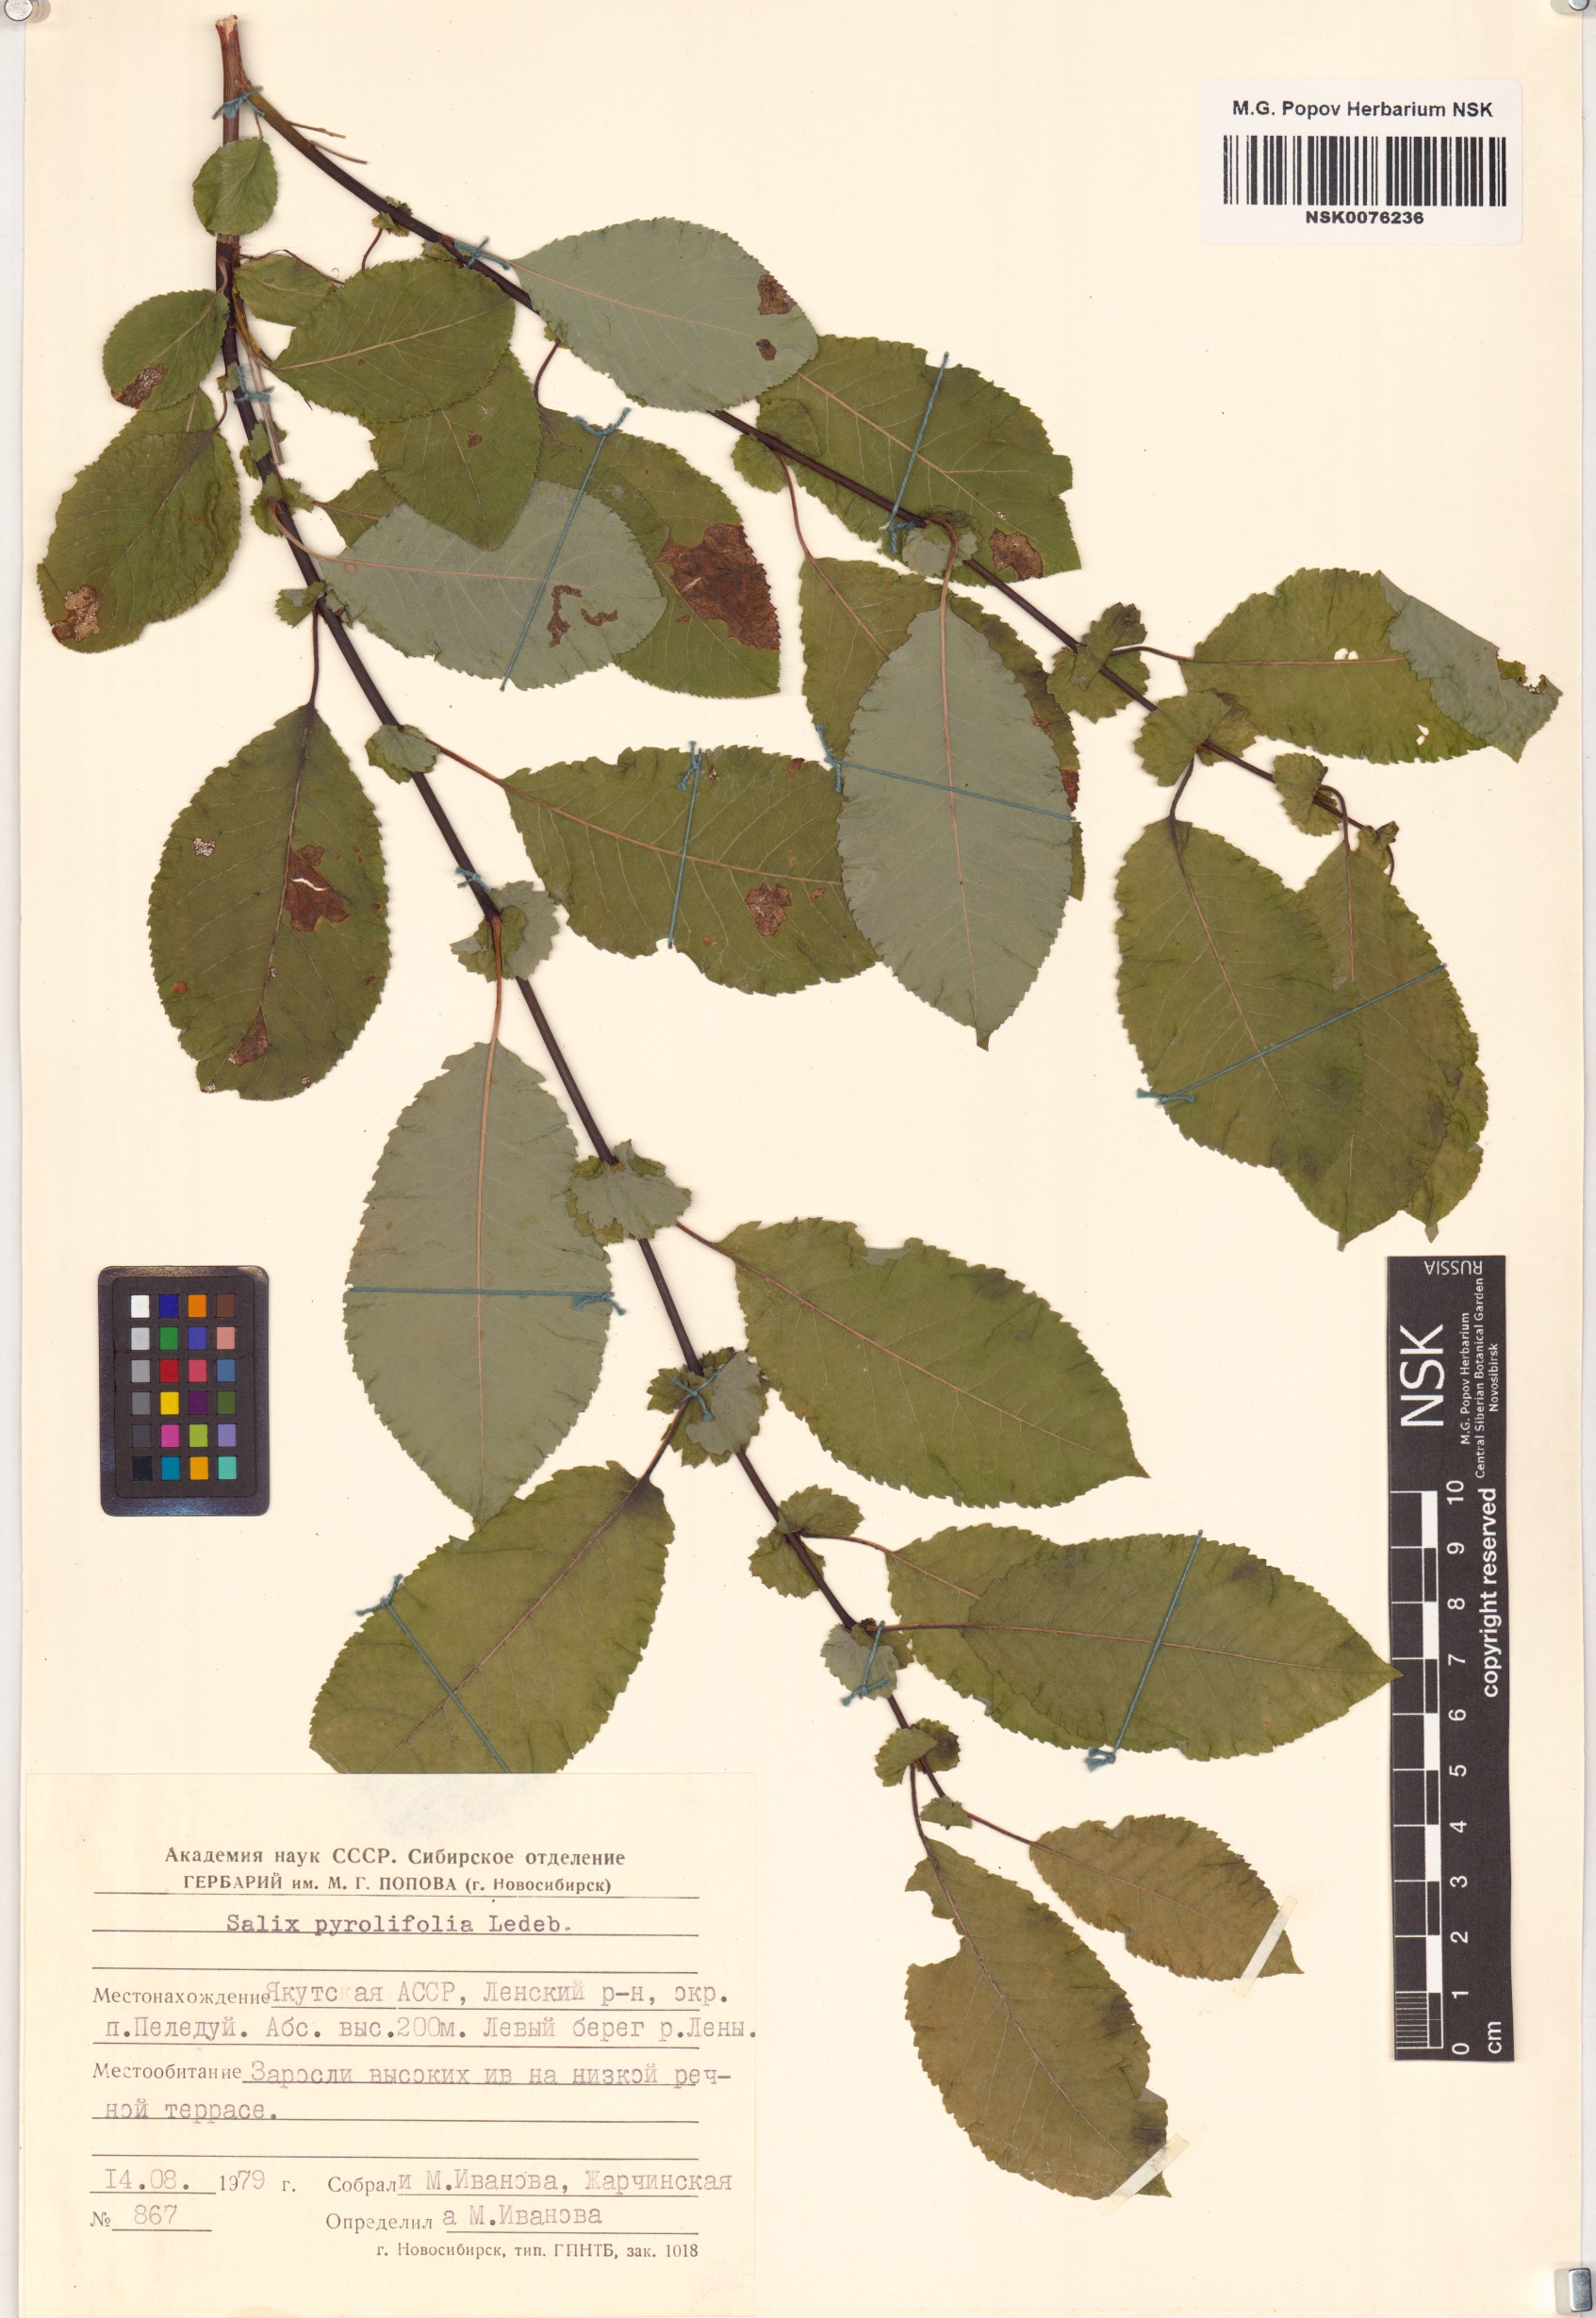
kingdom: Plantae
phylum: Tracheophyta
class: Magnoliopsida
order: Malpighiales
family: Salicaceae
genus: Salix
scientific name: Salix pyrolifolia
